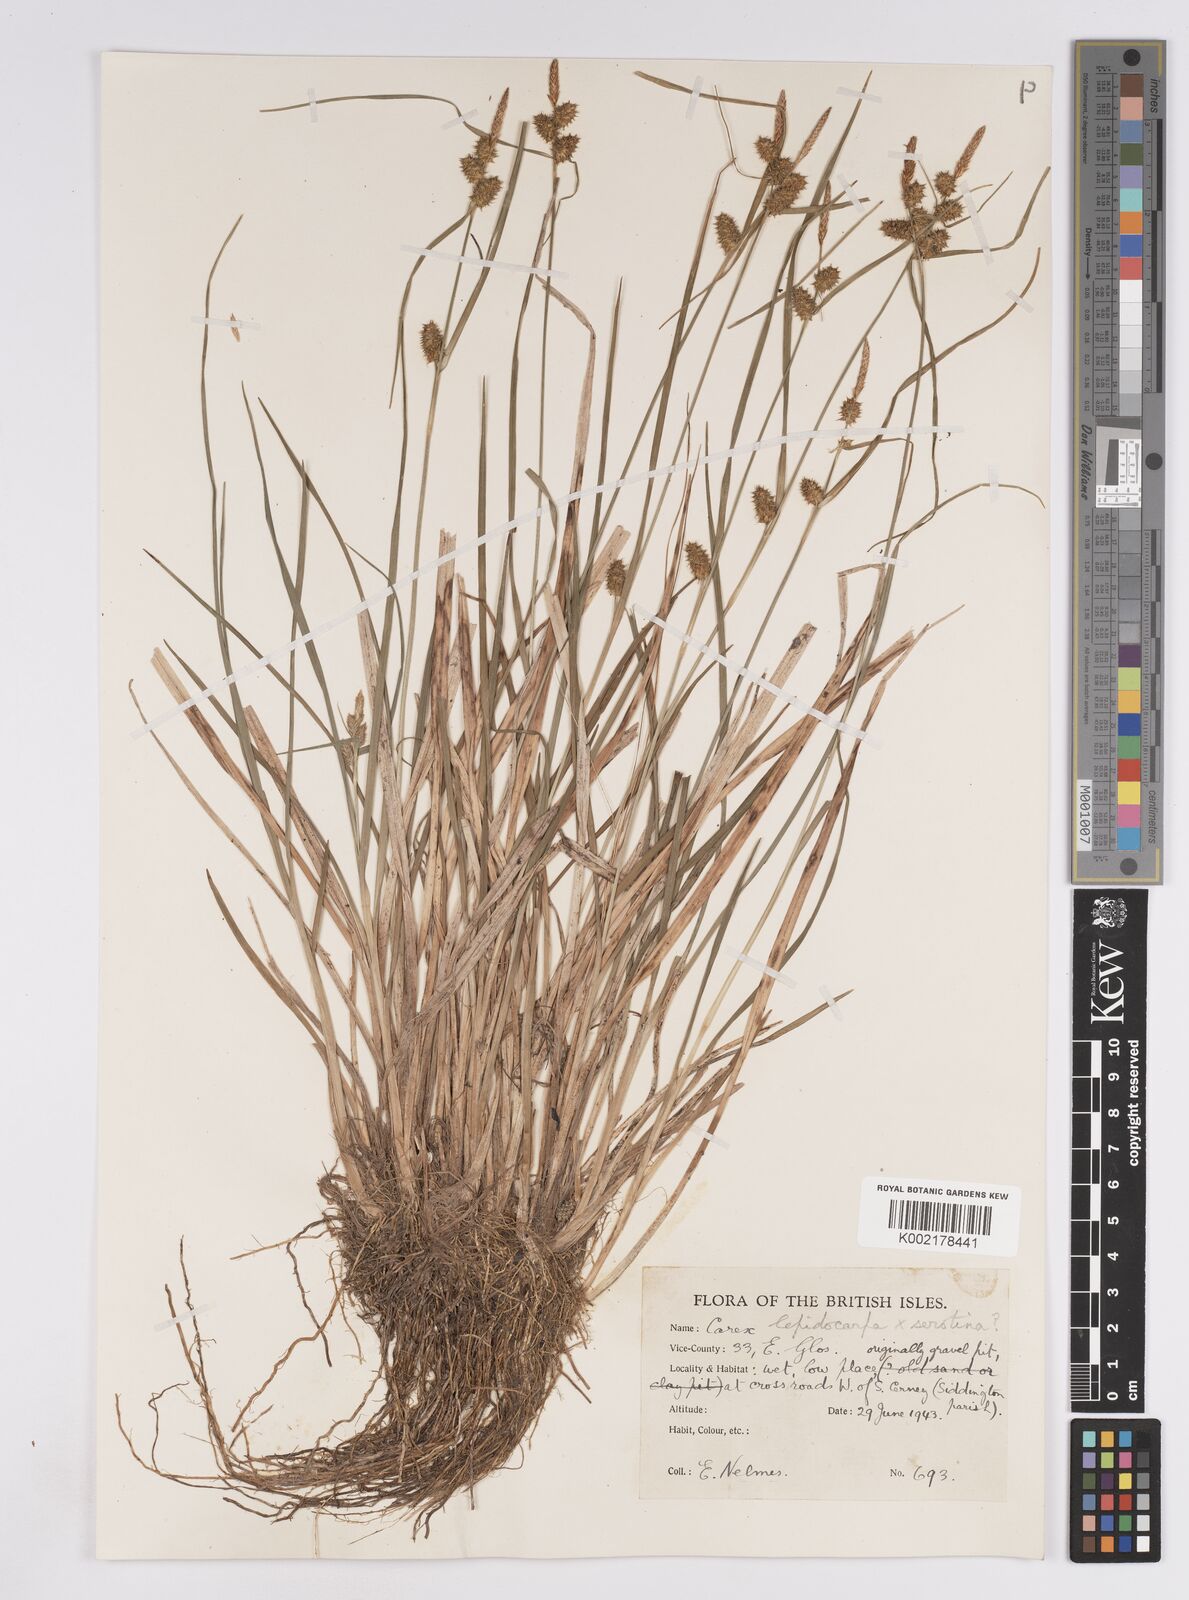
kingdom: Plantae
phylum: Tracheophyta
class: Liliopsida
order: Poales
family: Cyperaceae
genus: Carex
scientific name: Carex lepidocarpa
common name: Long-stalked yellow-sedge
